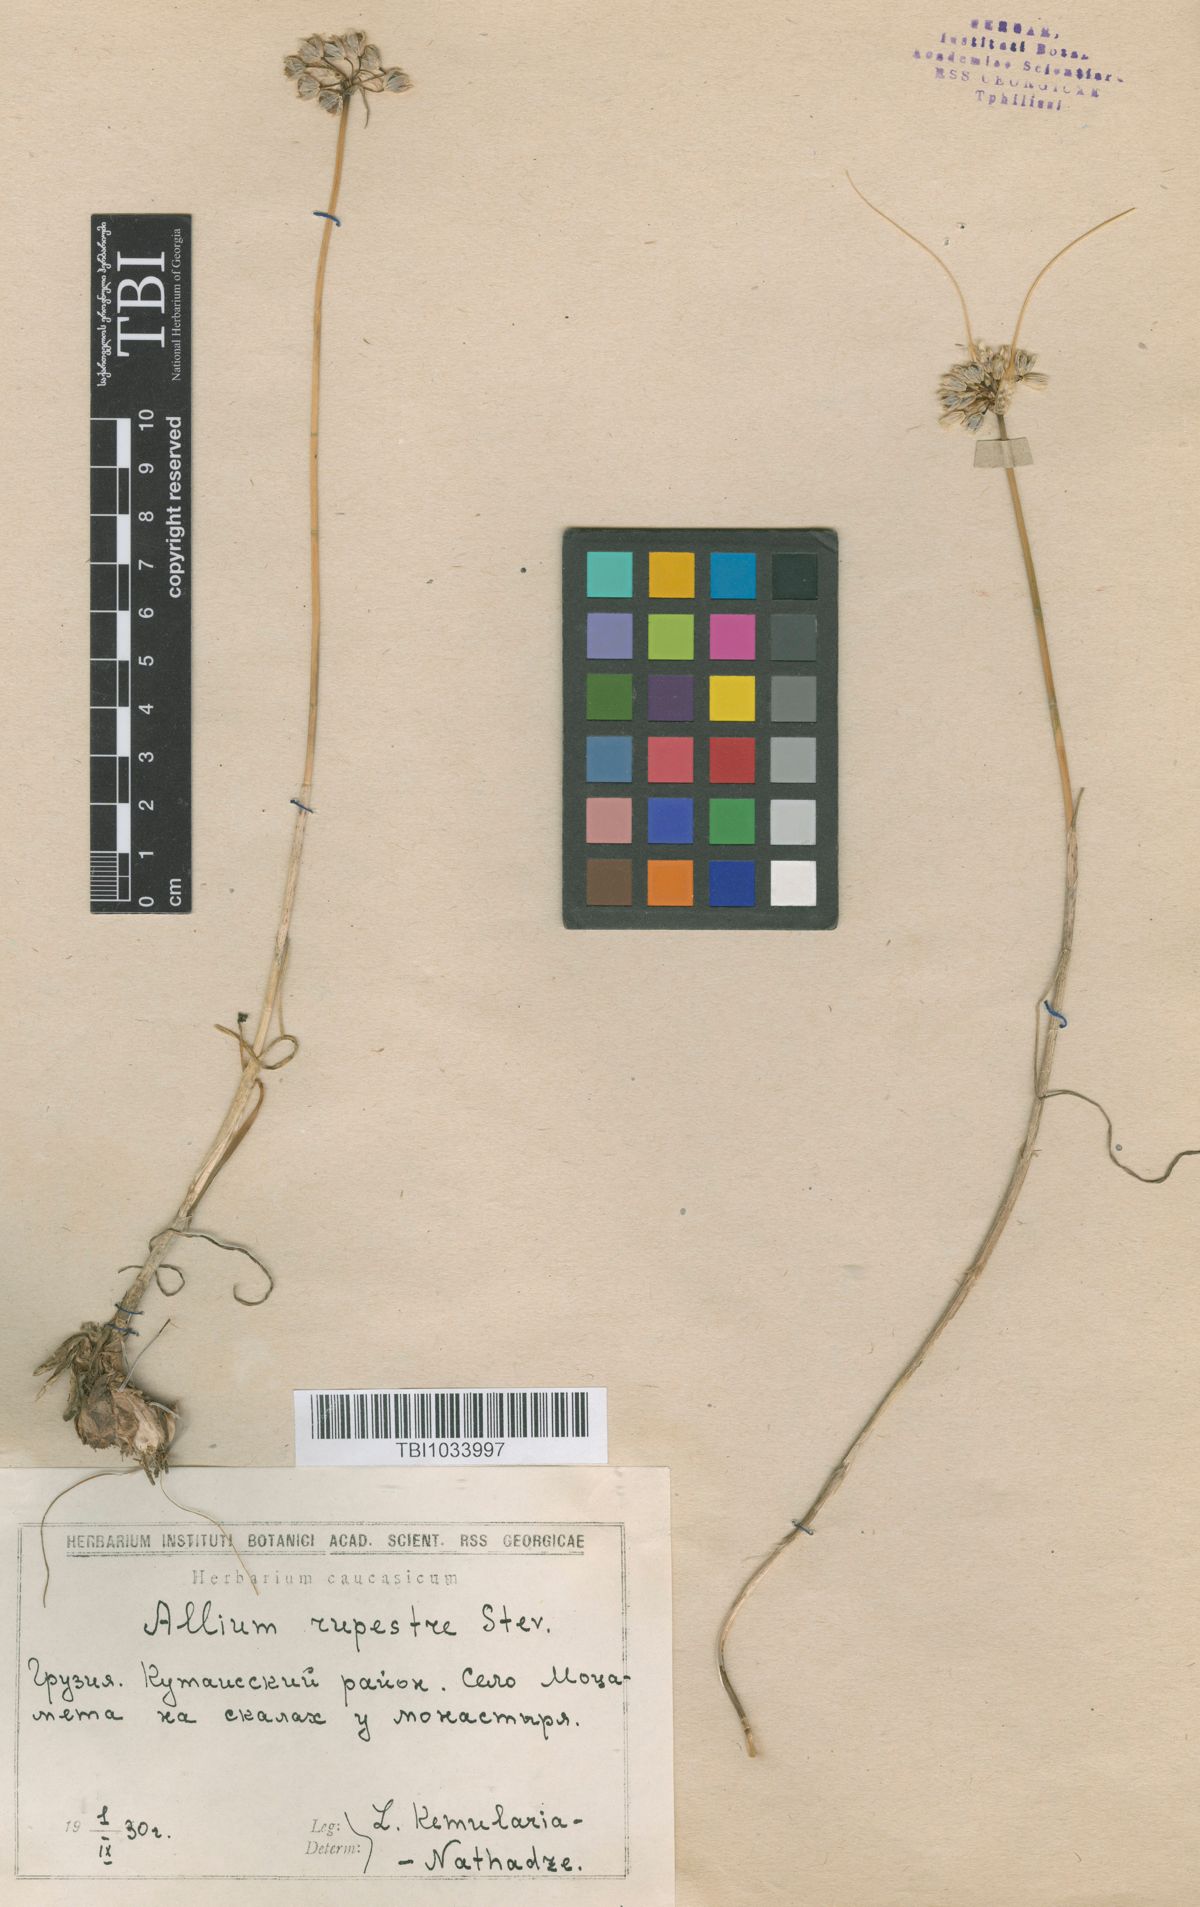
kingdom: Plantae
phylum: Tracheophyta
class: Liliopsida
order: Asparagales
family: Amaryllidaceae
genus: Allium
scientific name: Allium rupestre
